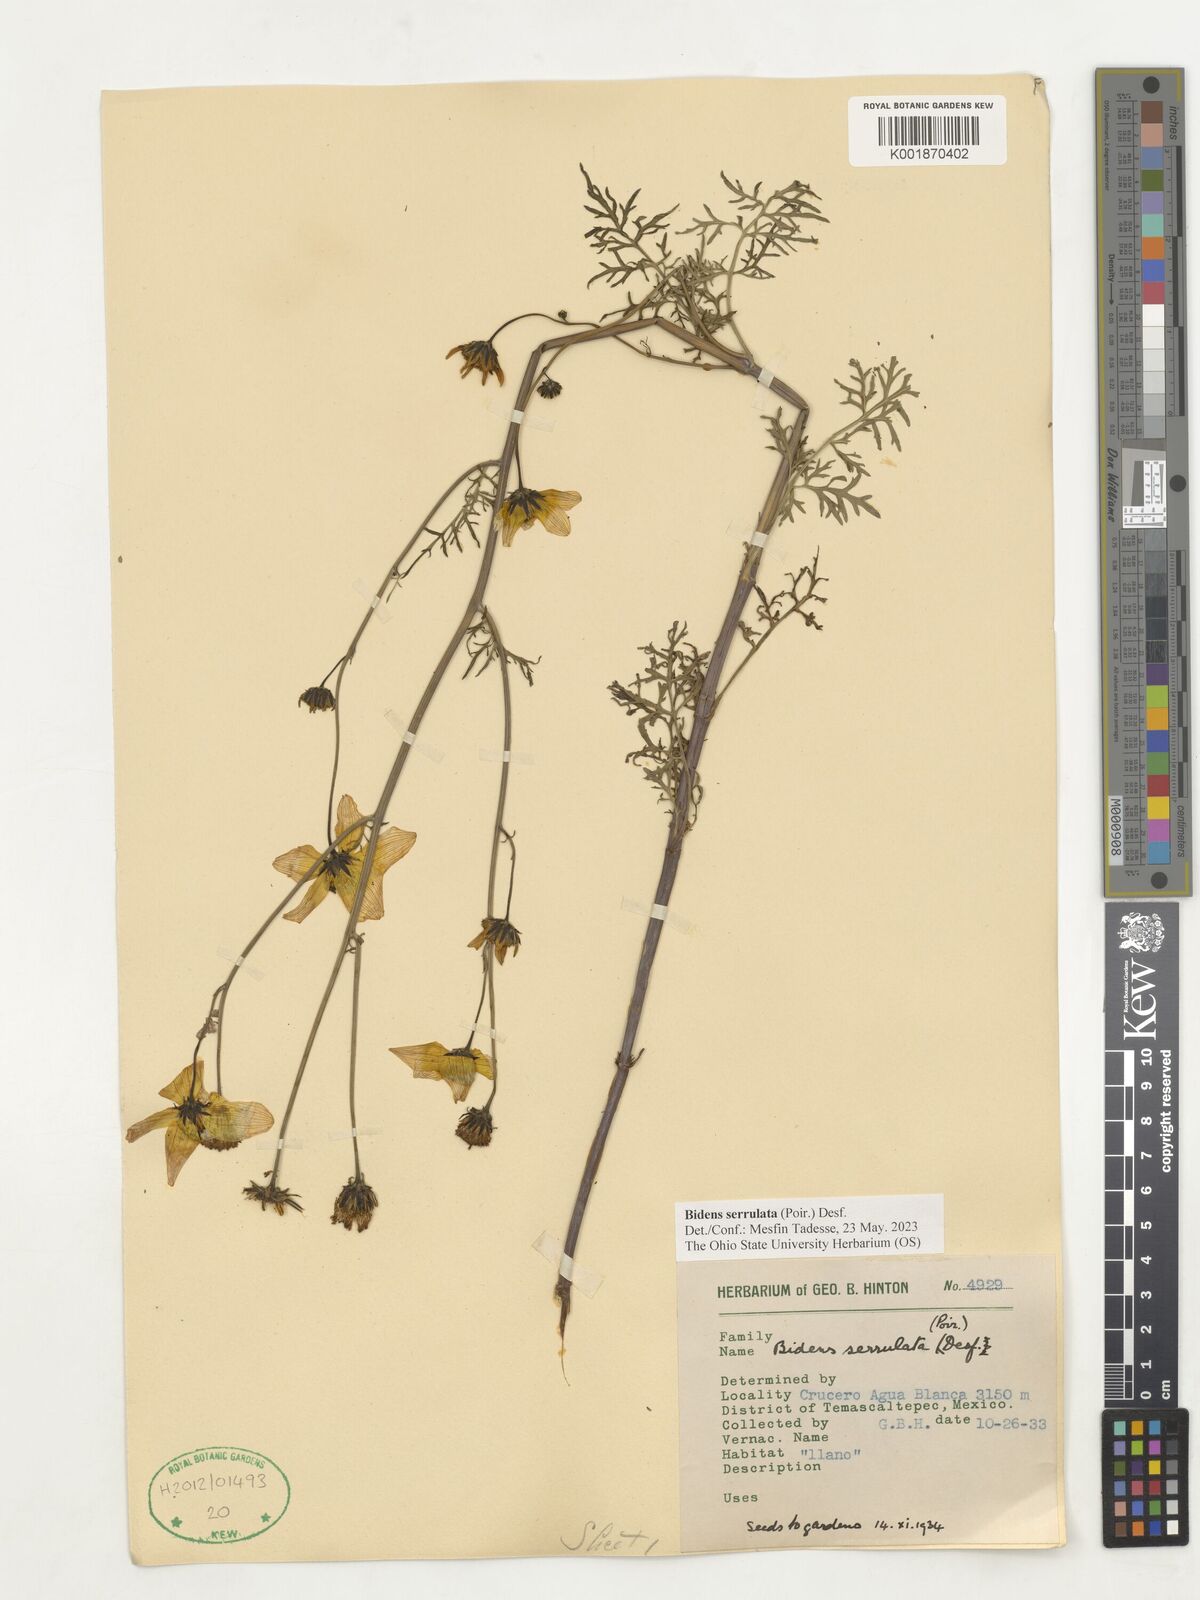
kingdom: Plantae
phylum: Tracheophyta
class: Magnoliopsida
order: Asterales
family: Asteraceae
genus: Bidens
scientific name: Bidens serrulata
